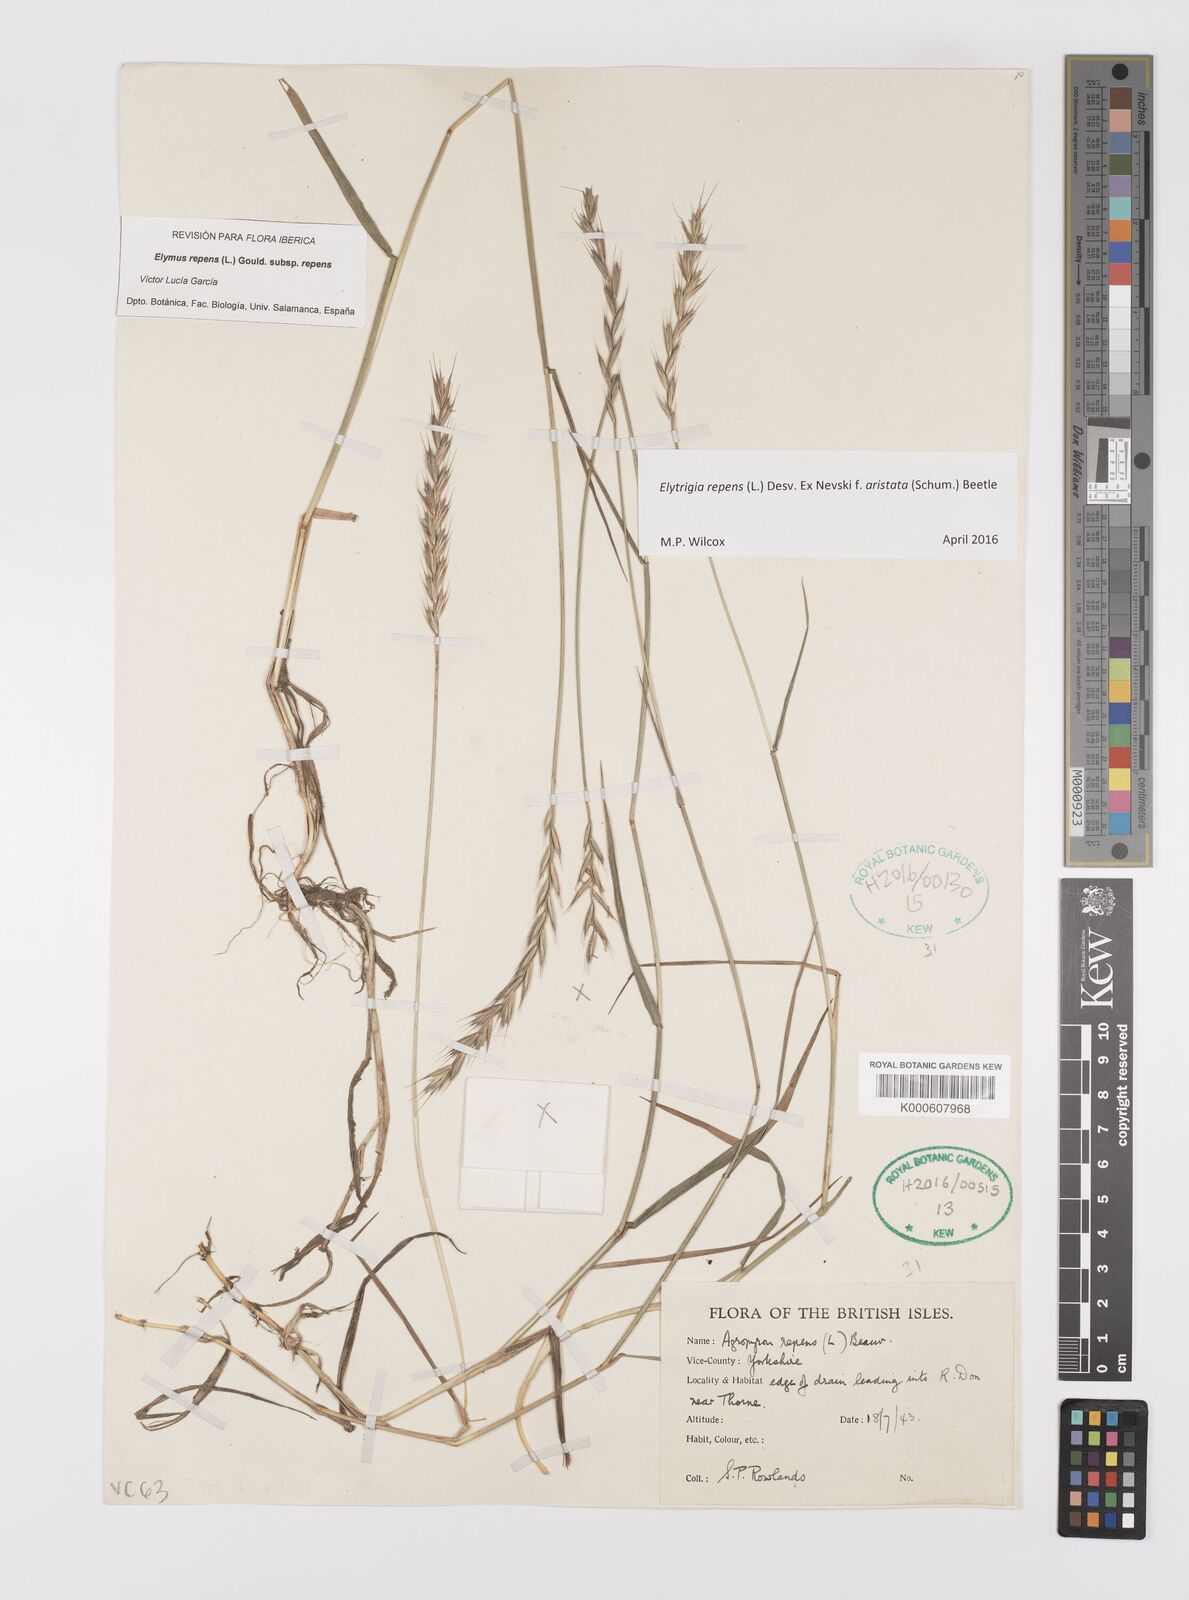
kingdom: Plantae
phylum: Tracheophyta
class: Liliopsida
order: Poales
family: Poaceae
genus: Elymus
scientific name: Elymus repens
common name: Quackgrass
